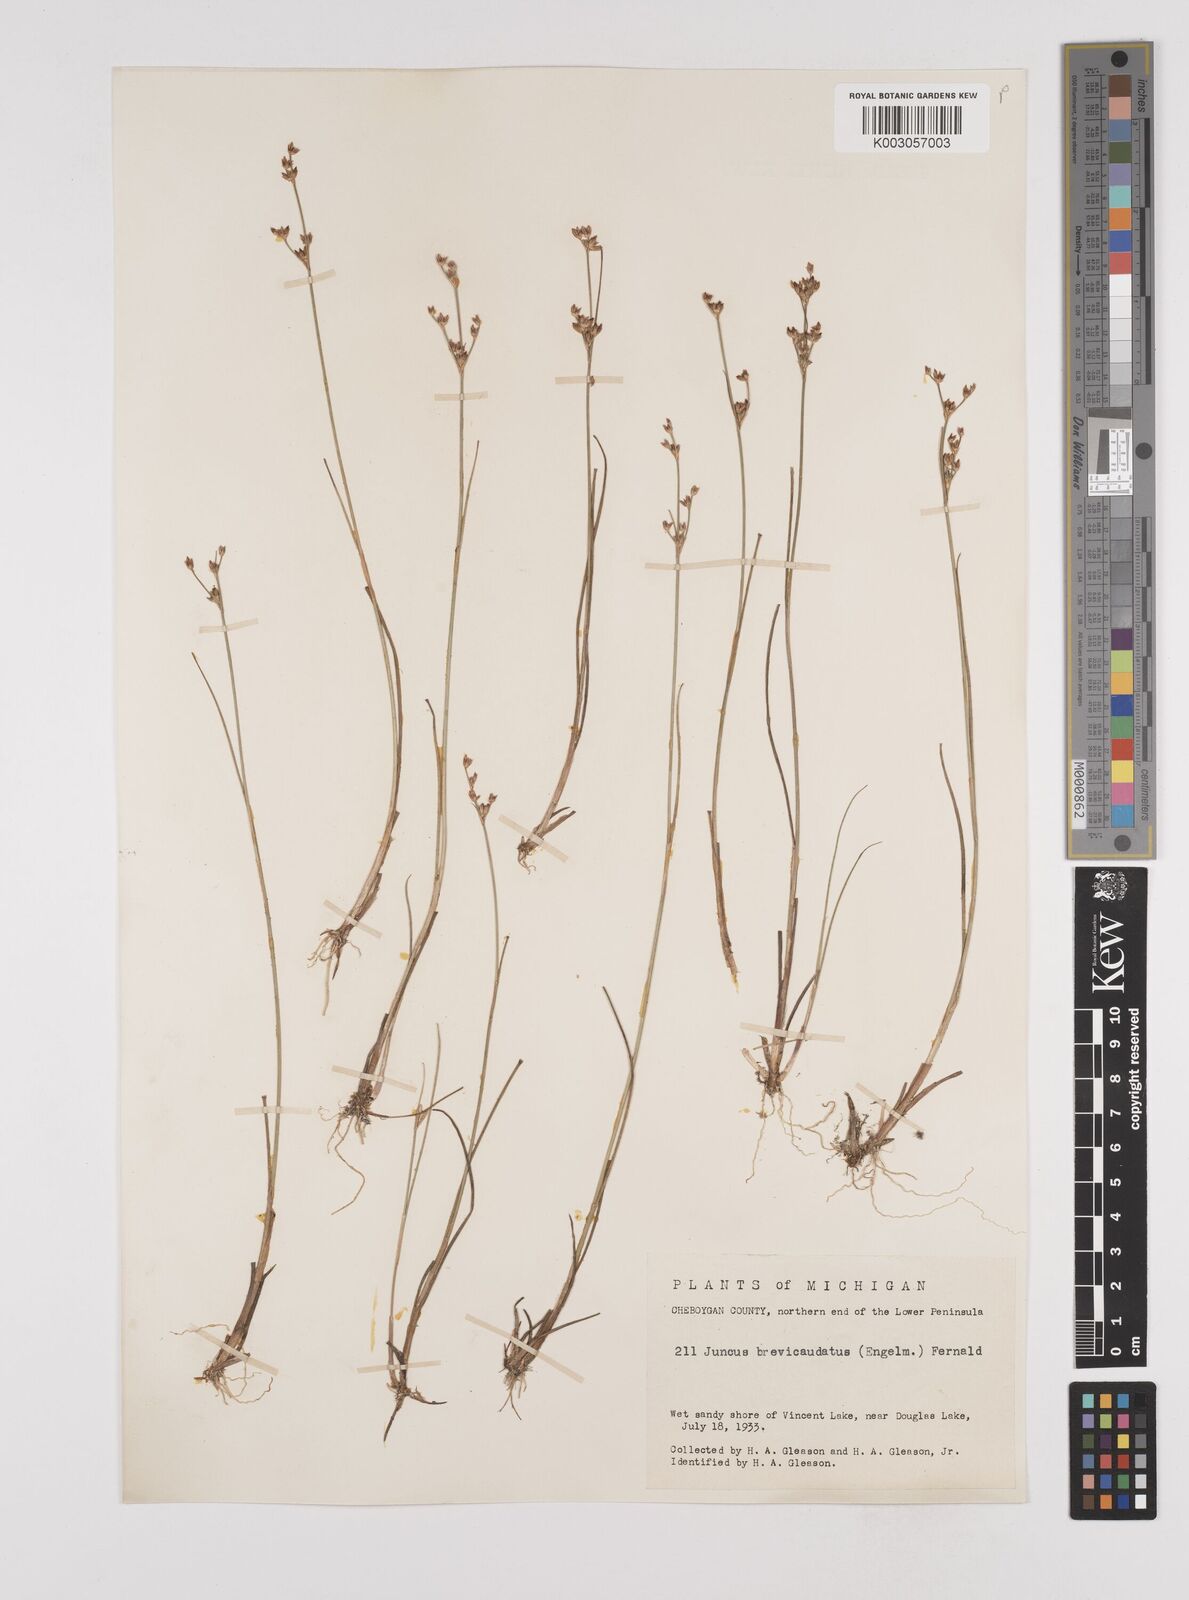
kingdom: Plantae
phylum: Tracheophyta
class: Liliopsida
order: Poales
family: Juncaceae
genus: Juncus
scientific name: Juncus brevicaudatus
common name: Narrow-panicle rush
